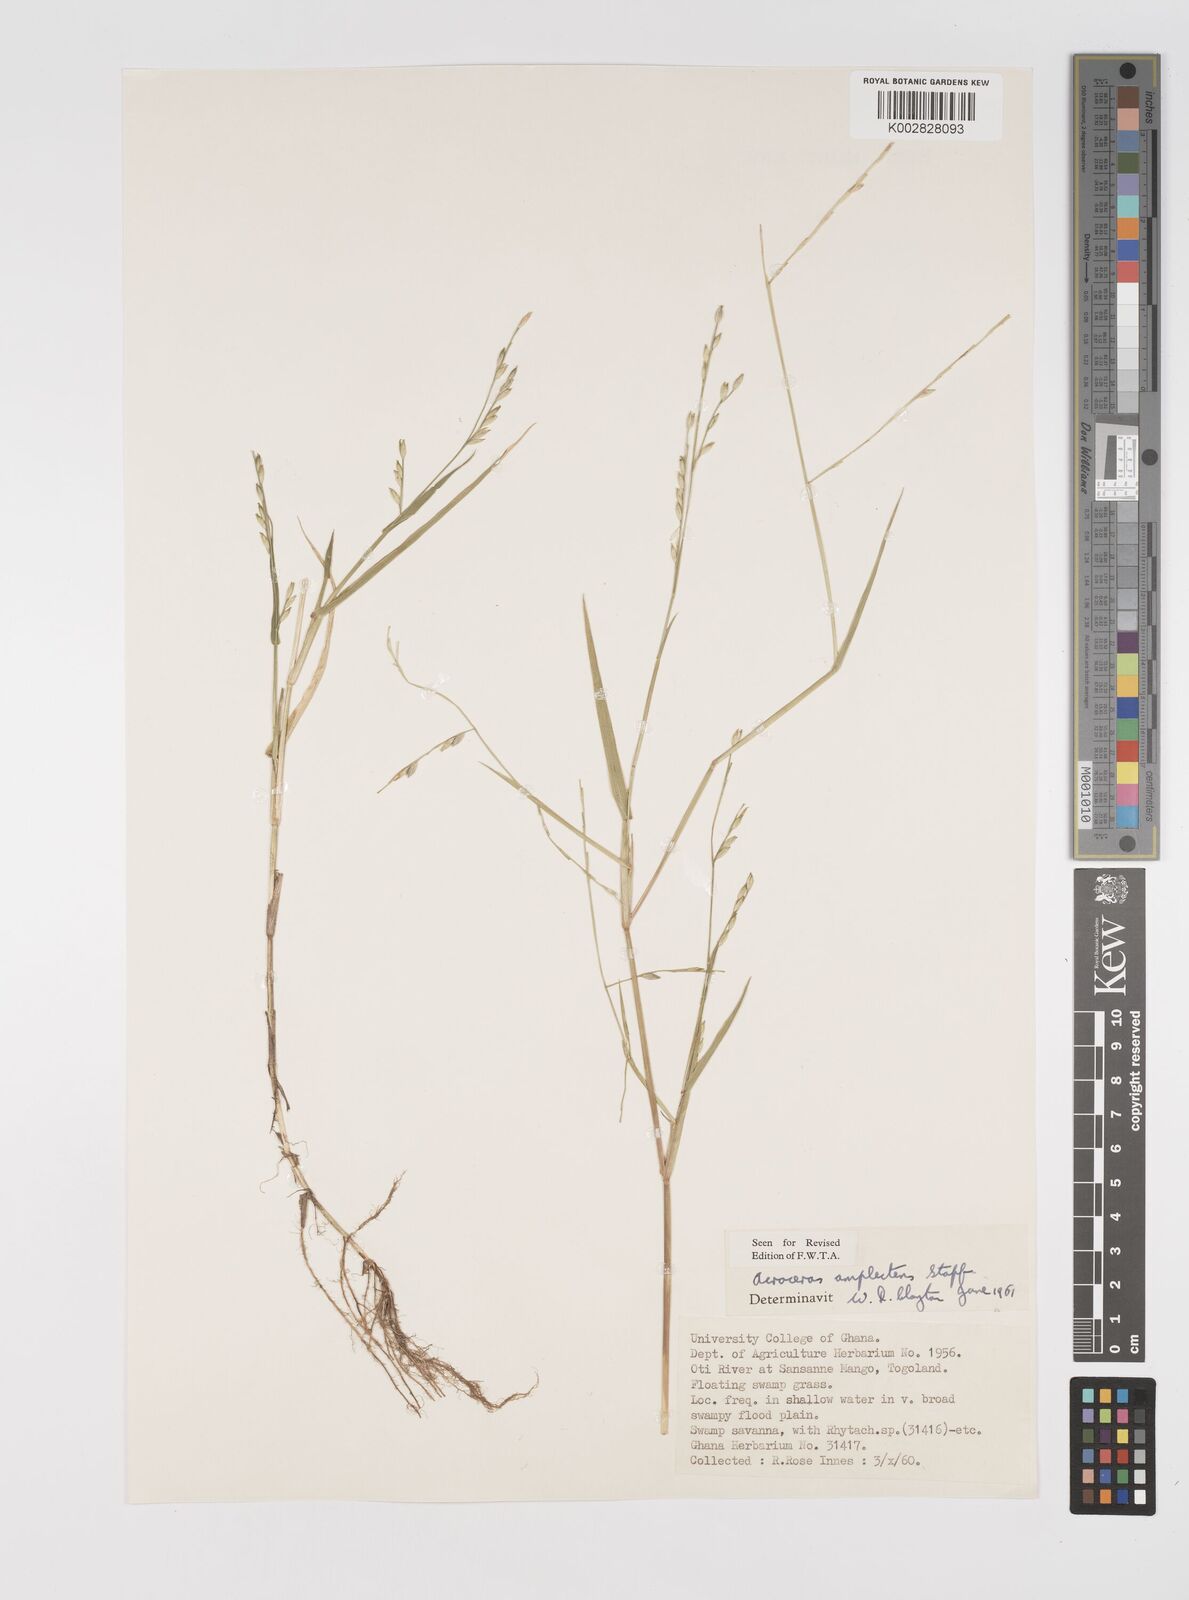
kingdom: Plantae
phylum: Tracheophyta
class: Liliopsida
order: Poales
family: Poaceae
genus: Acroceras
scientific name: Acroceras amplectens
